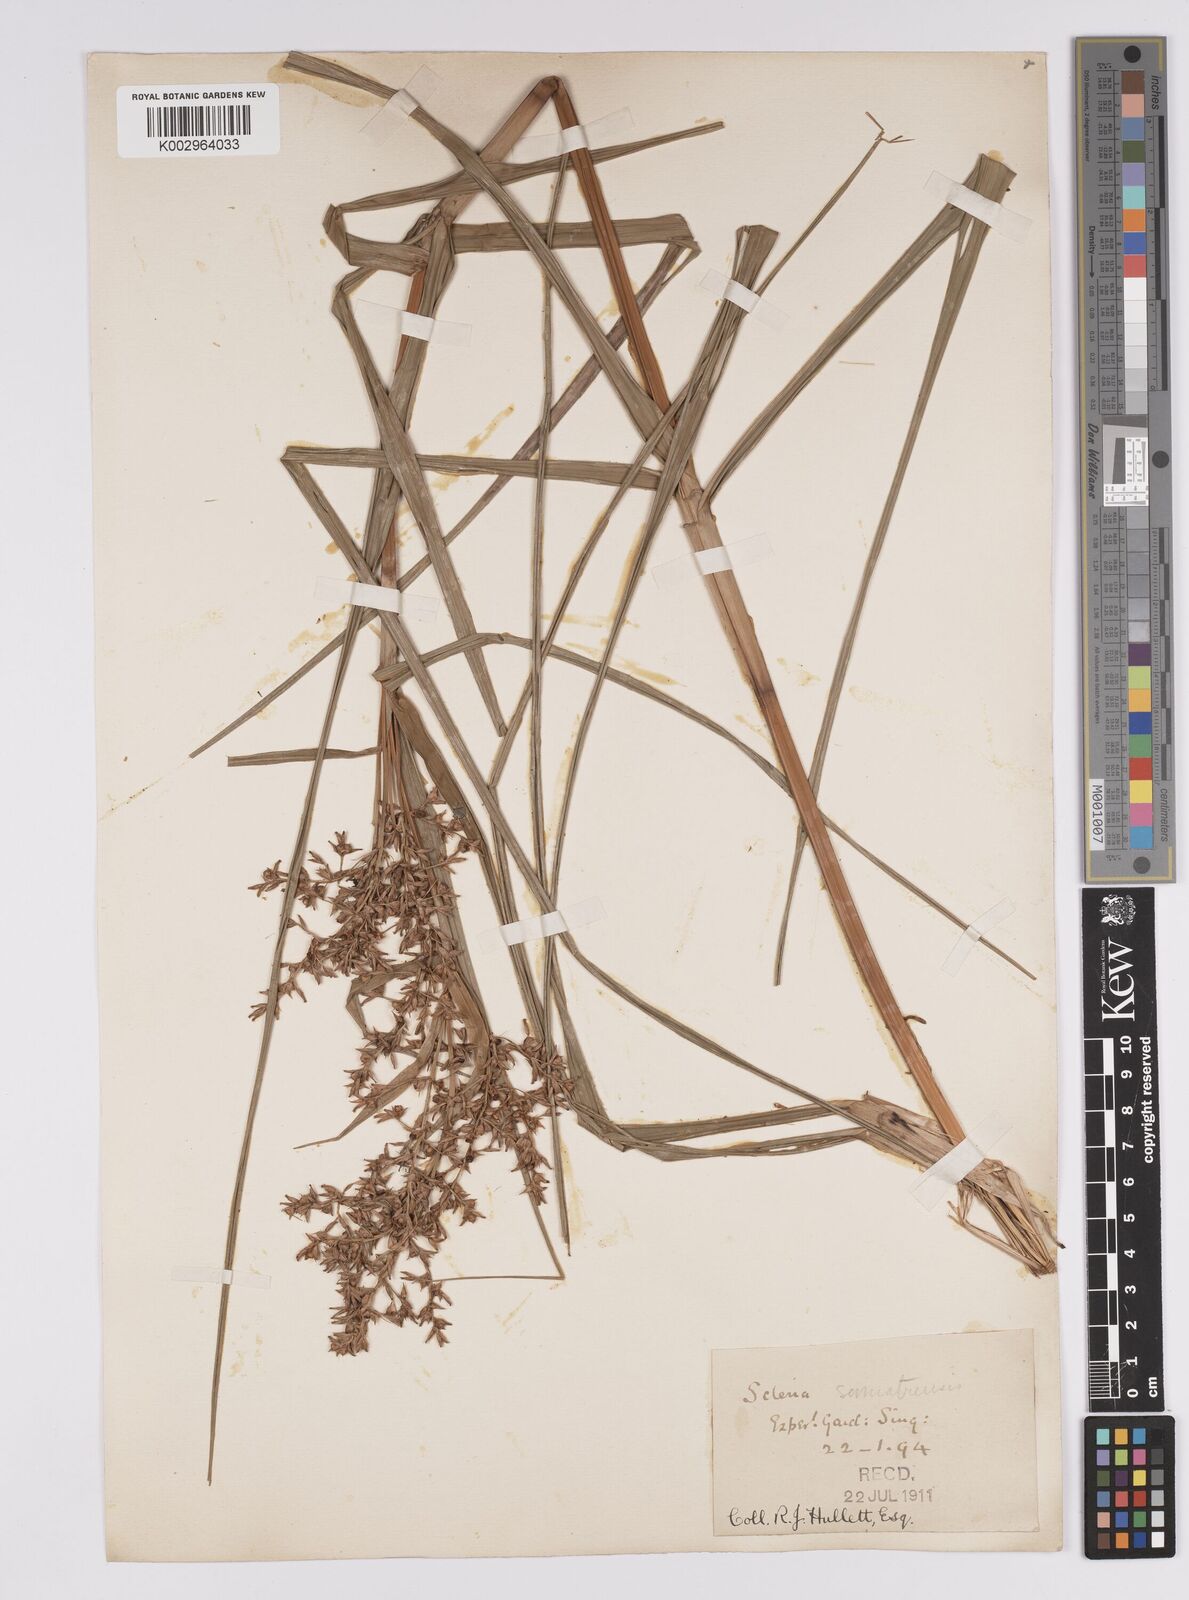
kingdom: Plantae
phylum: Tracheophyta
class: Liliopsida
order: Poales
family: Cyperaceae
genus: Scleria
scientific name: Scleria sumatrensis
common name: Sumatran scleria
